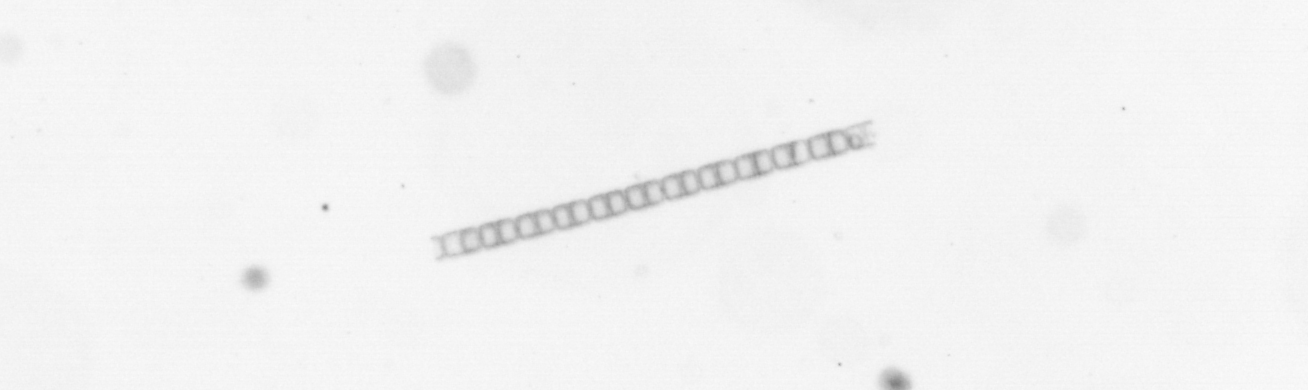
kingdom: Chromista
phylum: Ochrophyta
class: Bacillariophyceae
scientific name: Bacillariophyceae
